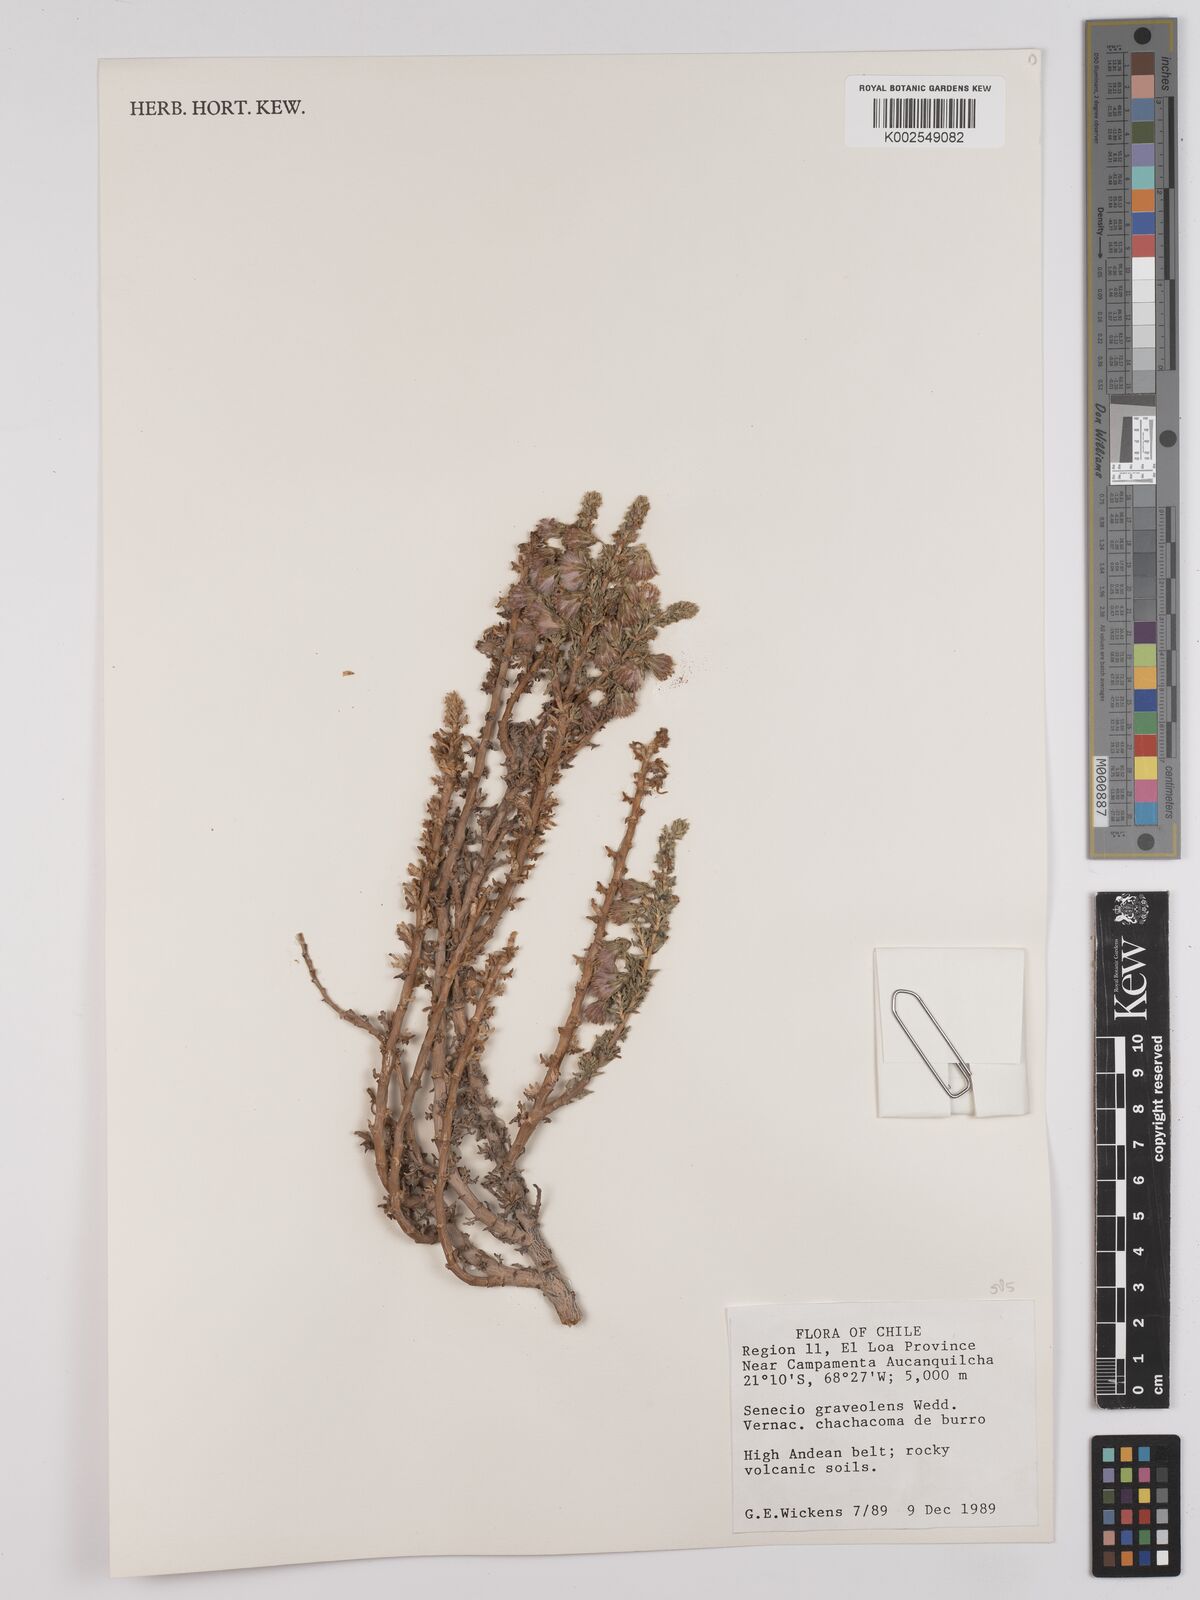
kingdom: Plantae
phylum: Tracheophyta
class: Magnoliopsida
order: Asterales
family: Asteraceae
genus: Senecio
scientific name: Senecio nutans
